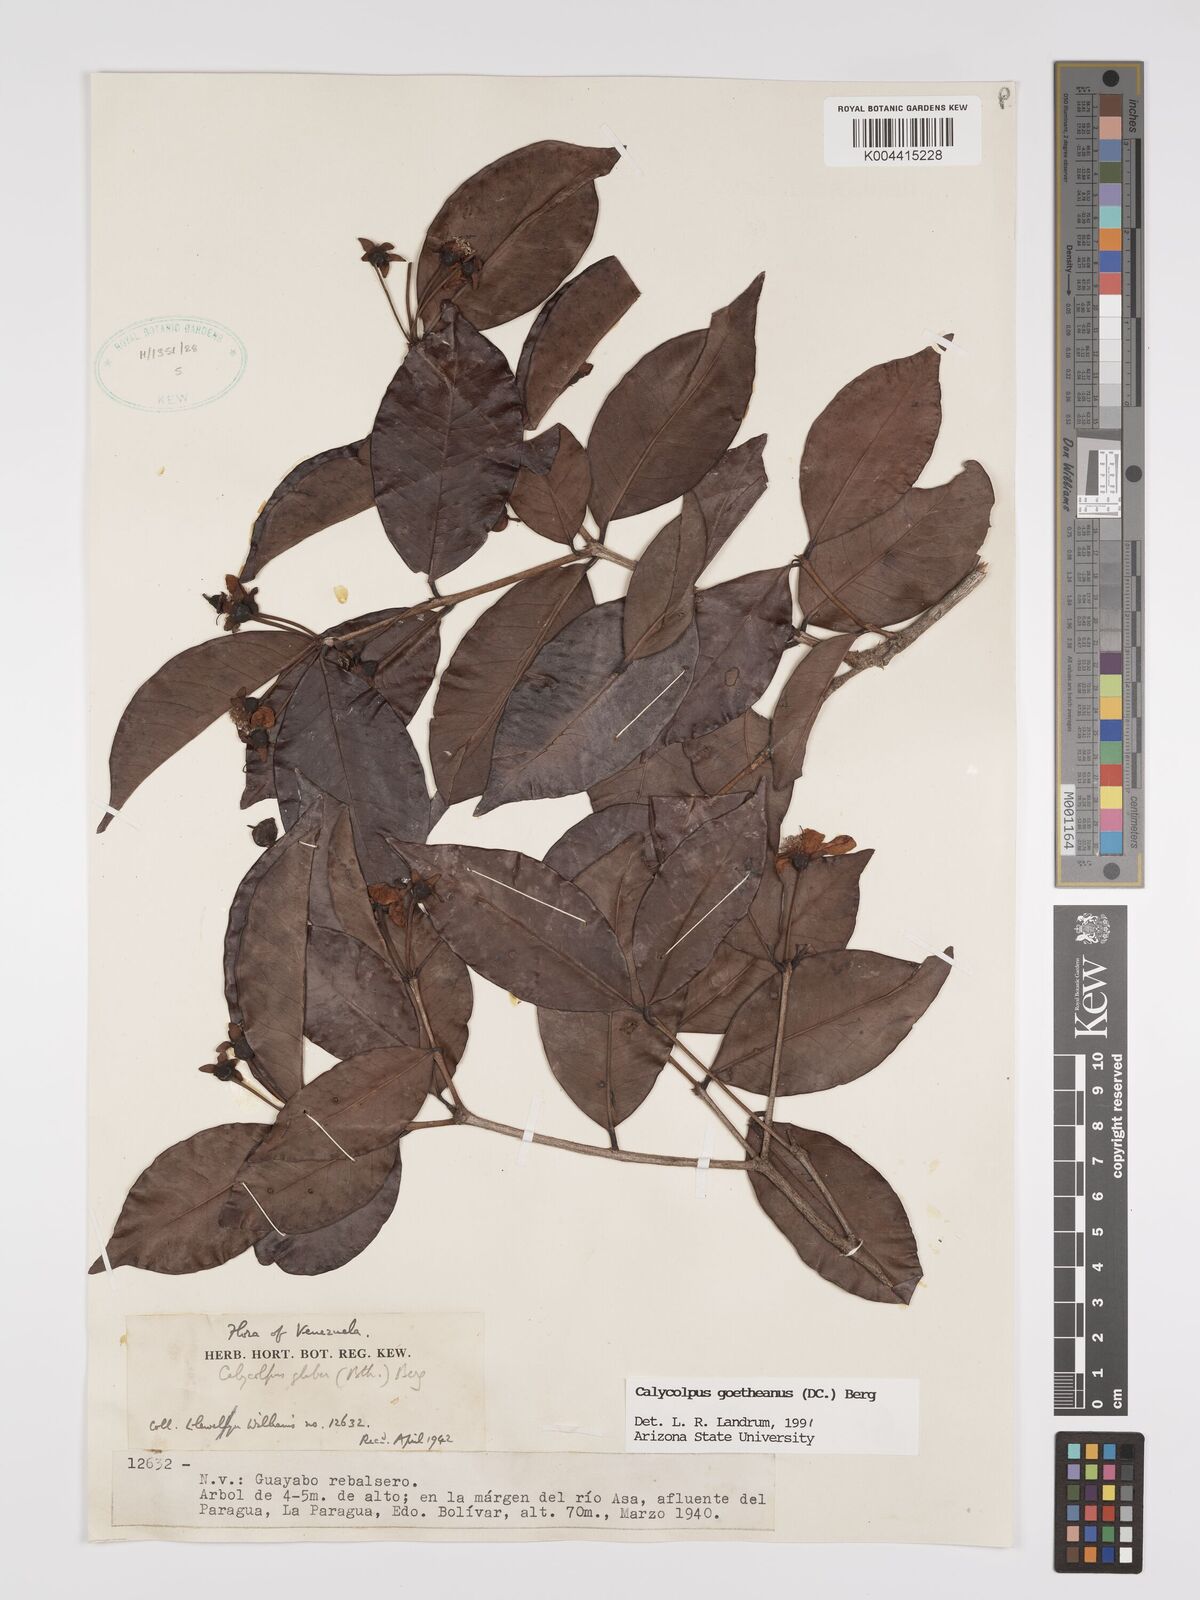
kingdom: Plantae
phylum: Tracheophyta
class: Magnoliopsida
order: Myrtales
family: Myrtaceae
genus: Calycolpus
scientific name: Calycolpus goetheanus
